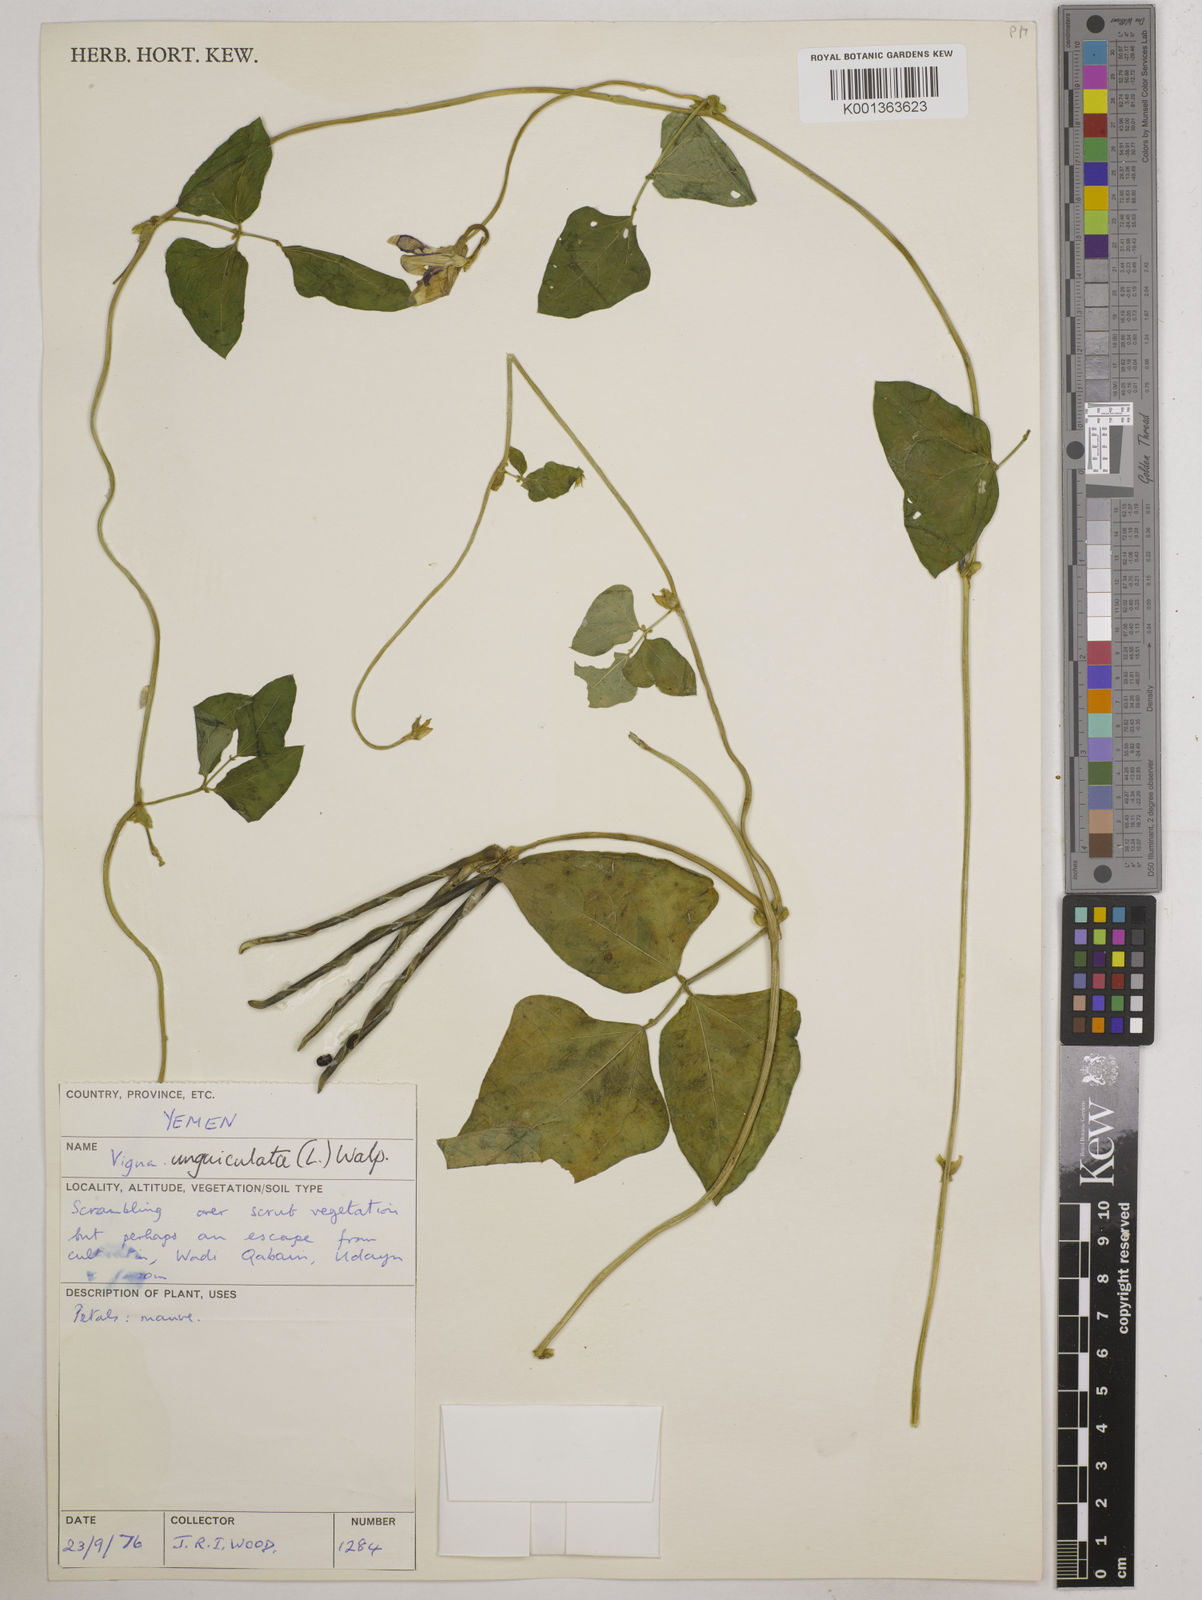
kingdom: Plantae
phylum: Tracheophyta
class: Magnoliopsida
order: Fabales
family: Fabaceae
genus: Vigna
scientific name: Vigna unguiculata
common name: Cowpea
